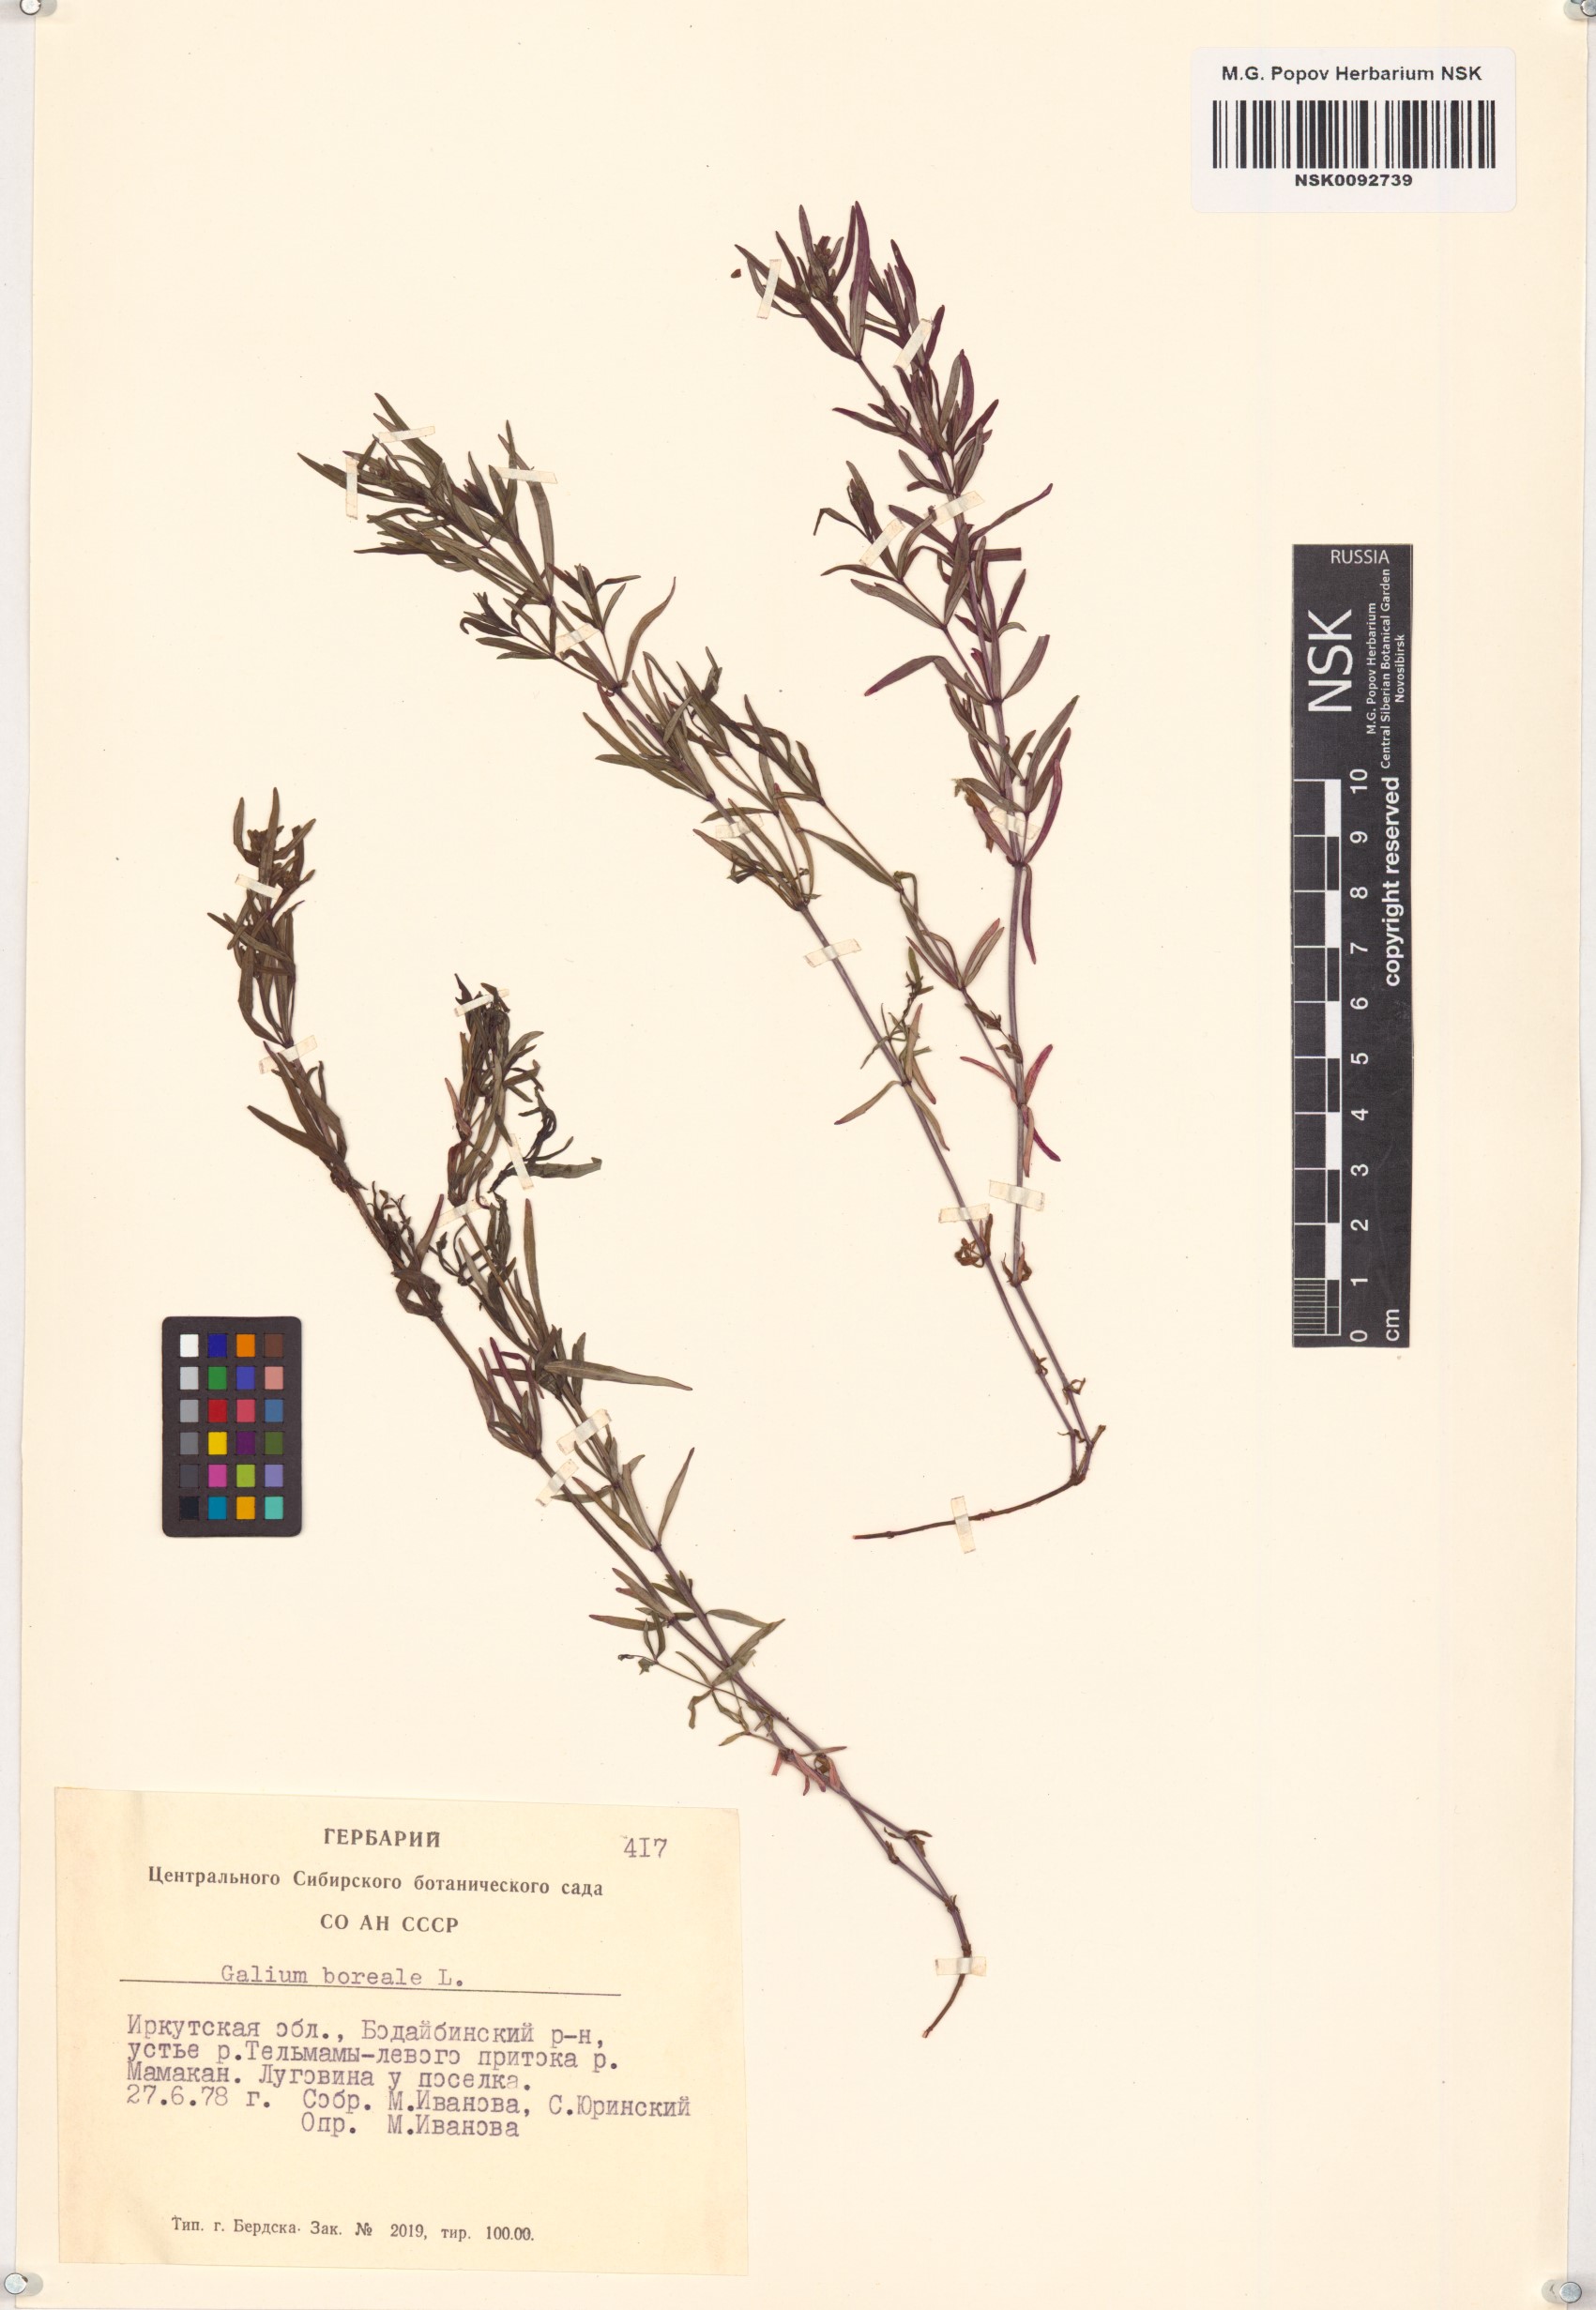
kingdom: Plantae
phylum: Tracheophyta
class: Magnoliopsida
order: Gentianales
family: Rubiaceae
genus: Galium
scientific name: Galium boreale
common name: Northern bedstraw
